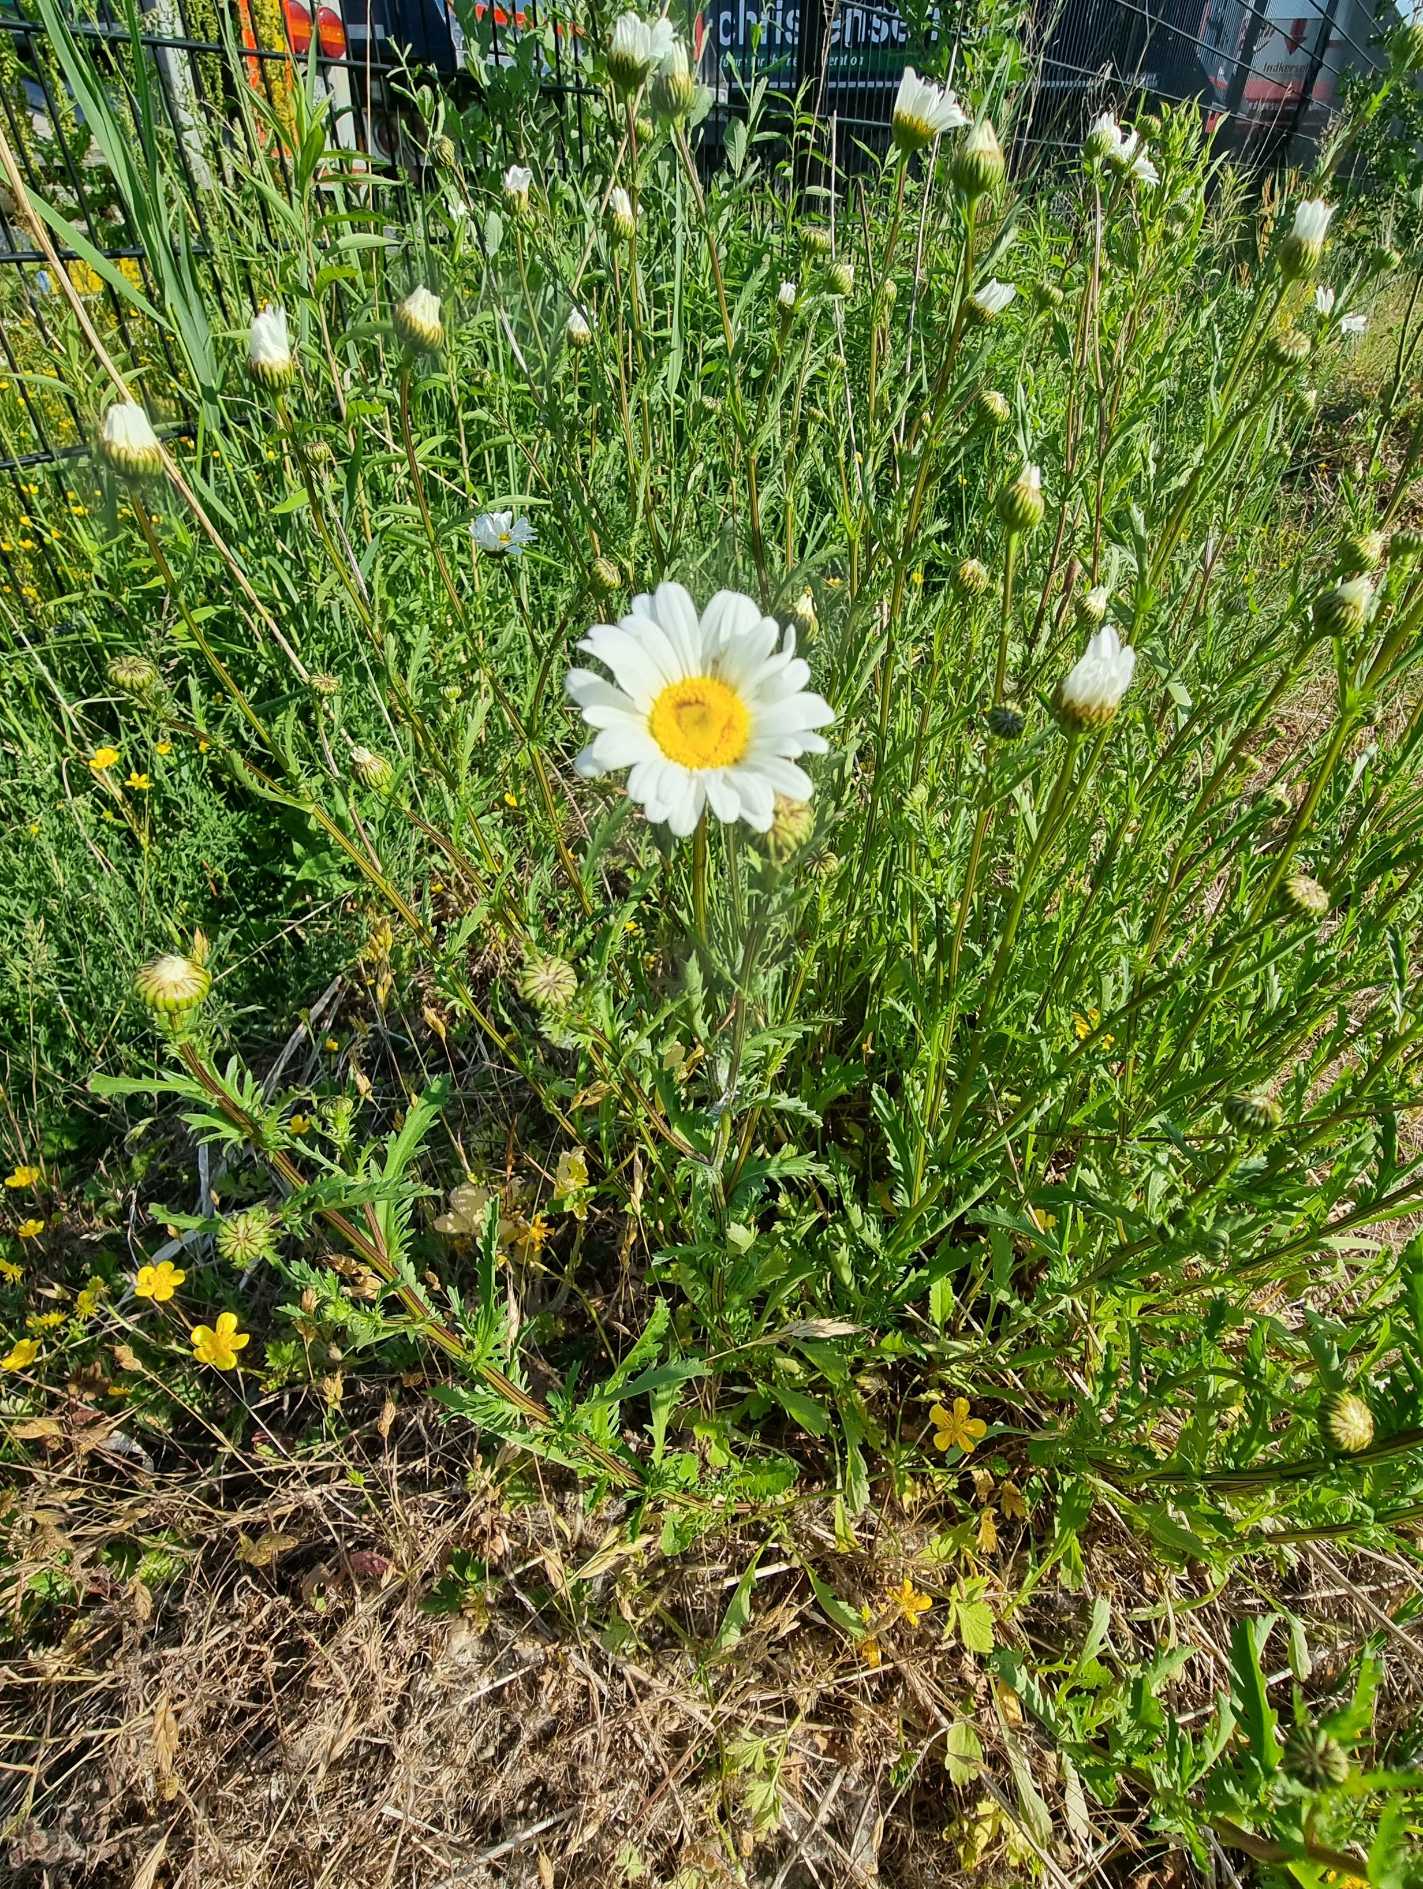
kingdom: Plantae
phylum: Tracheophyta
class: Magnoliopsida
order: Asterales
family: Asteraceae
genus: Leucanthemum
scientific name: Leucanthemum vulgare
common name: Hvid okseøje
